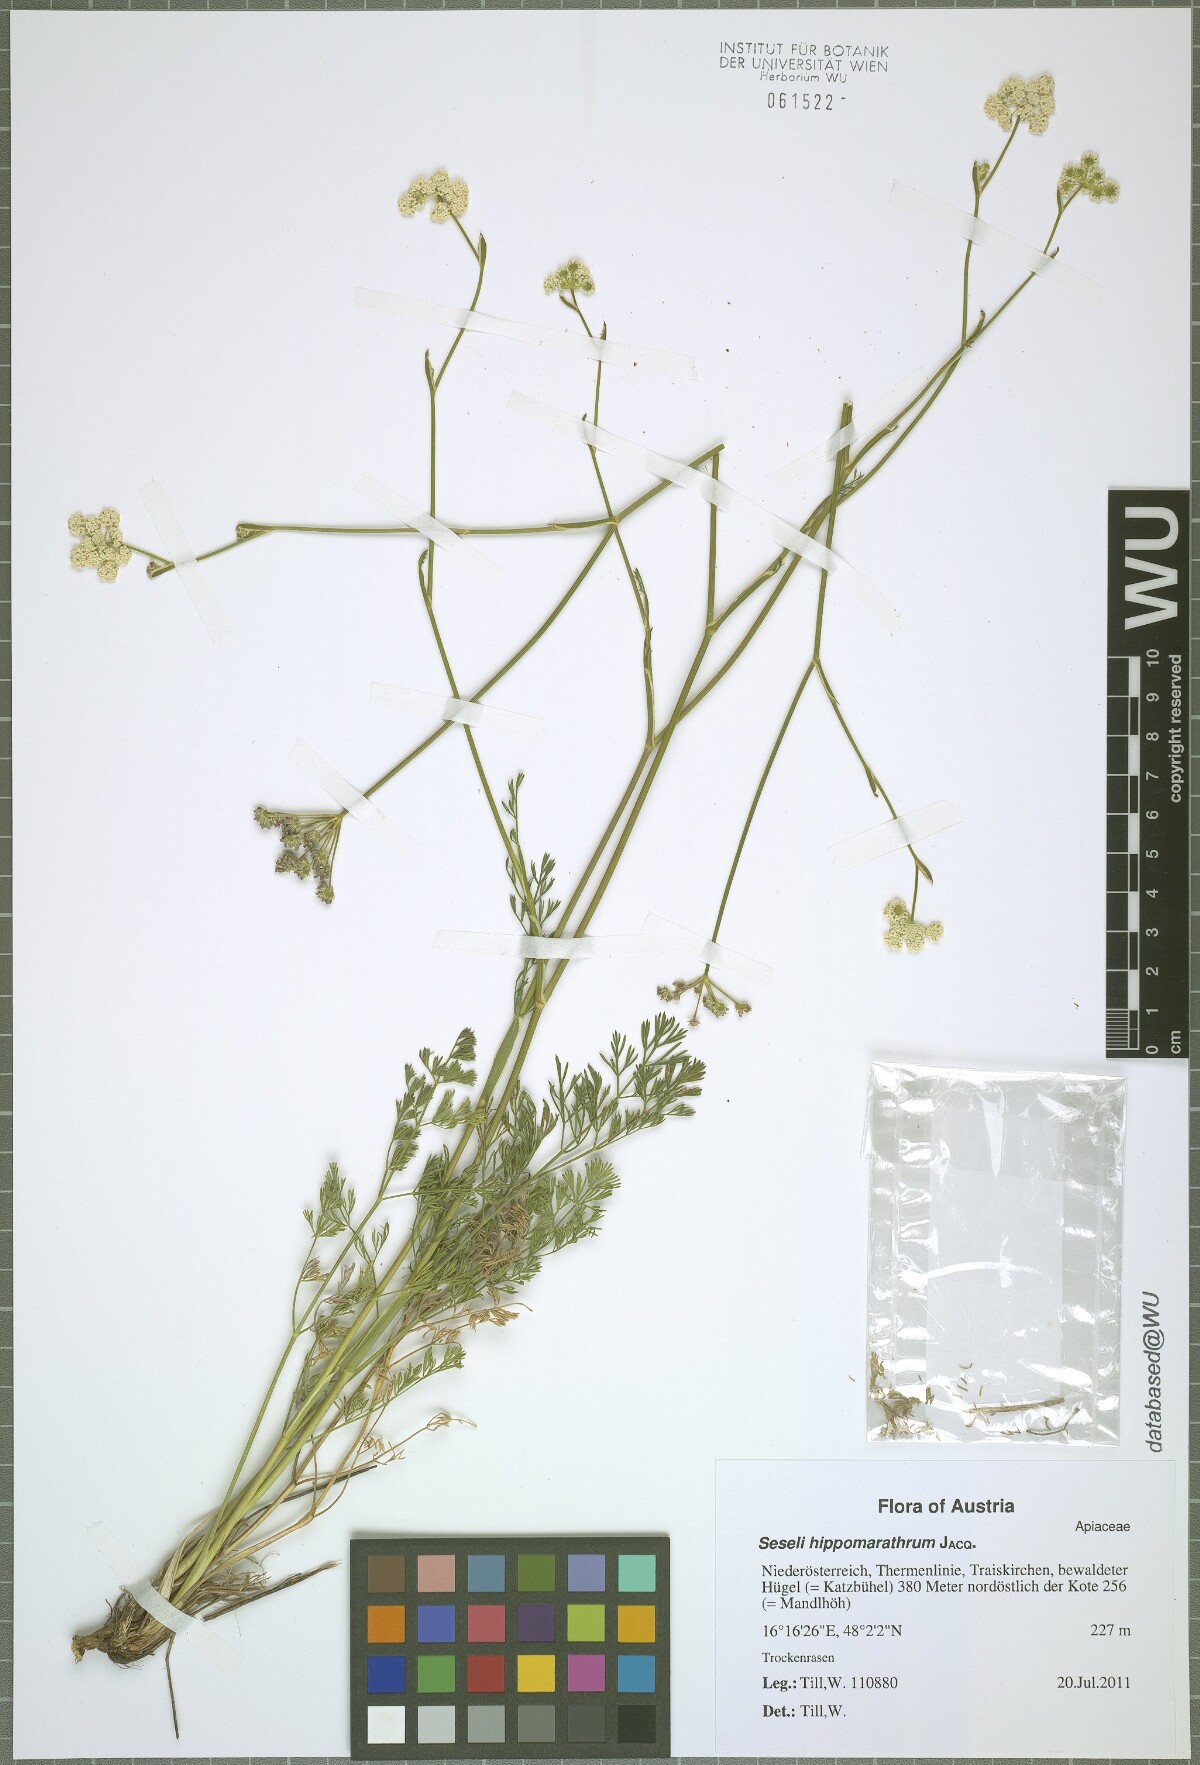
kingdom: Plantae
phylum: Tracheophyta
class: Magnoliopsida
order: Apiales
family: Apiaceae
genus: Hippomarathrum
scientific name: Hippomarathrum vulgare
